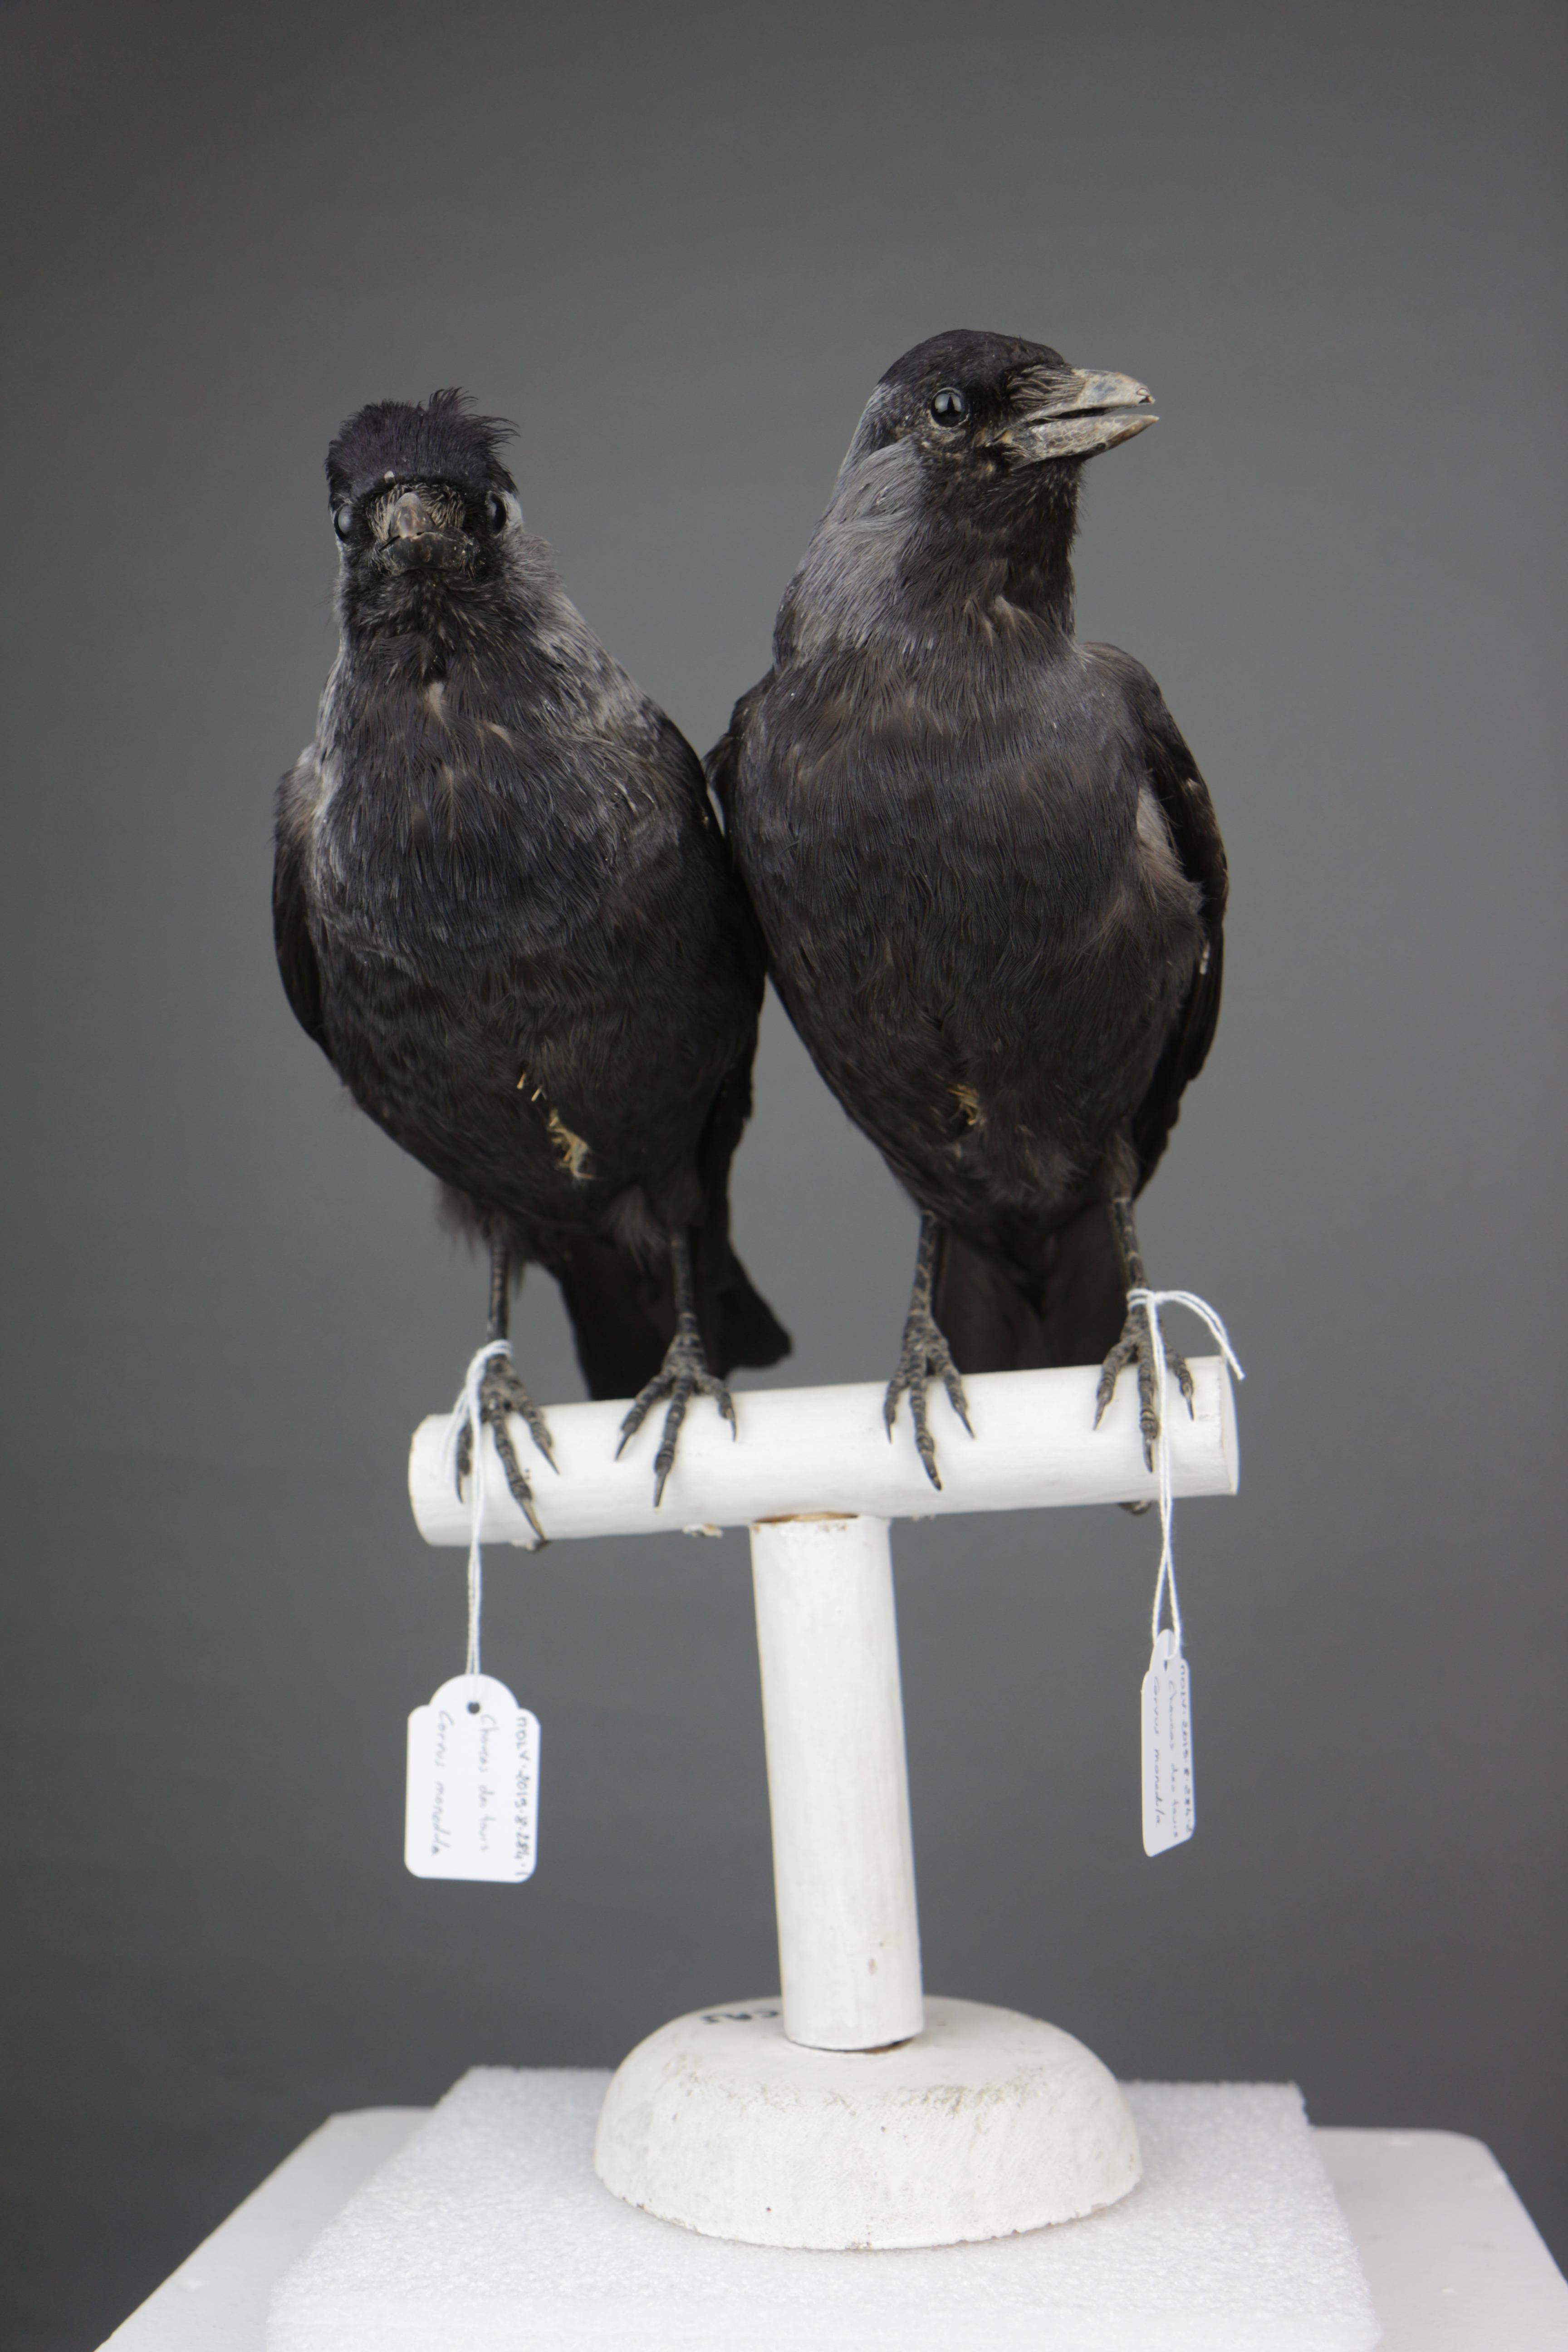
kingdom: Animalia
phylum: Chordata
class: Aves
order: Passeriformes
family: Corvidae
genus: Coloeus
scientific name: Coloeus monedula
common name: Western jackdaw
